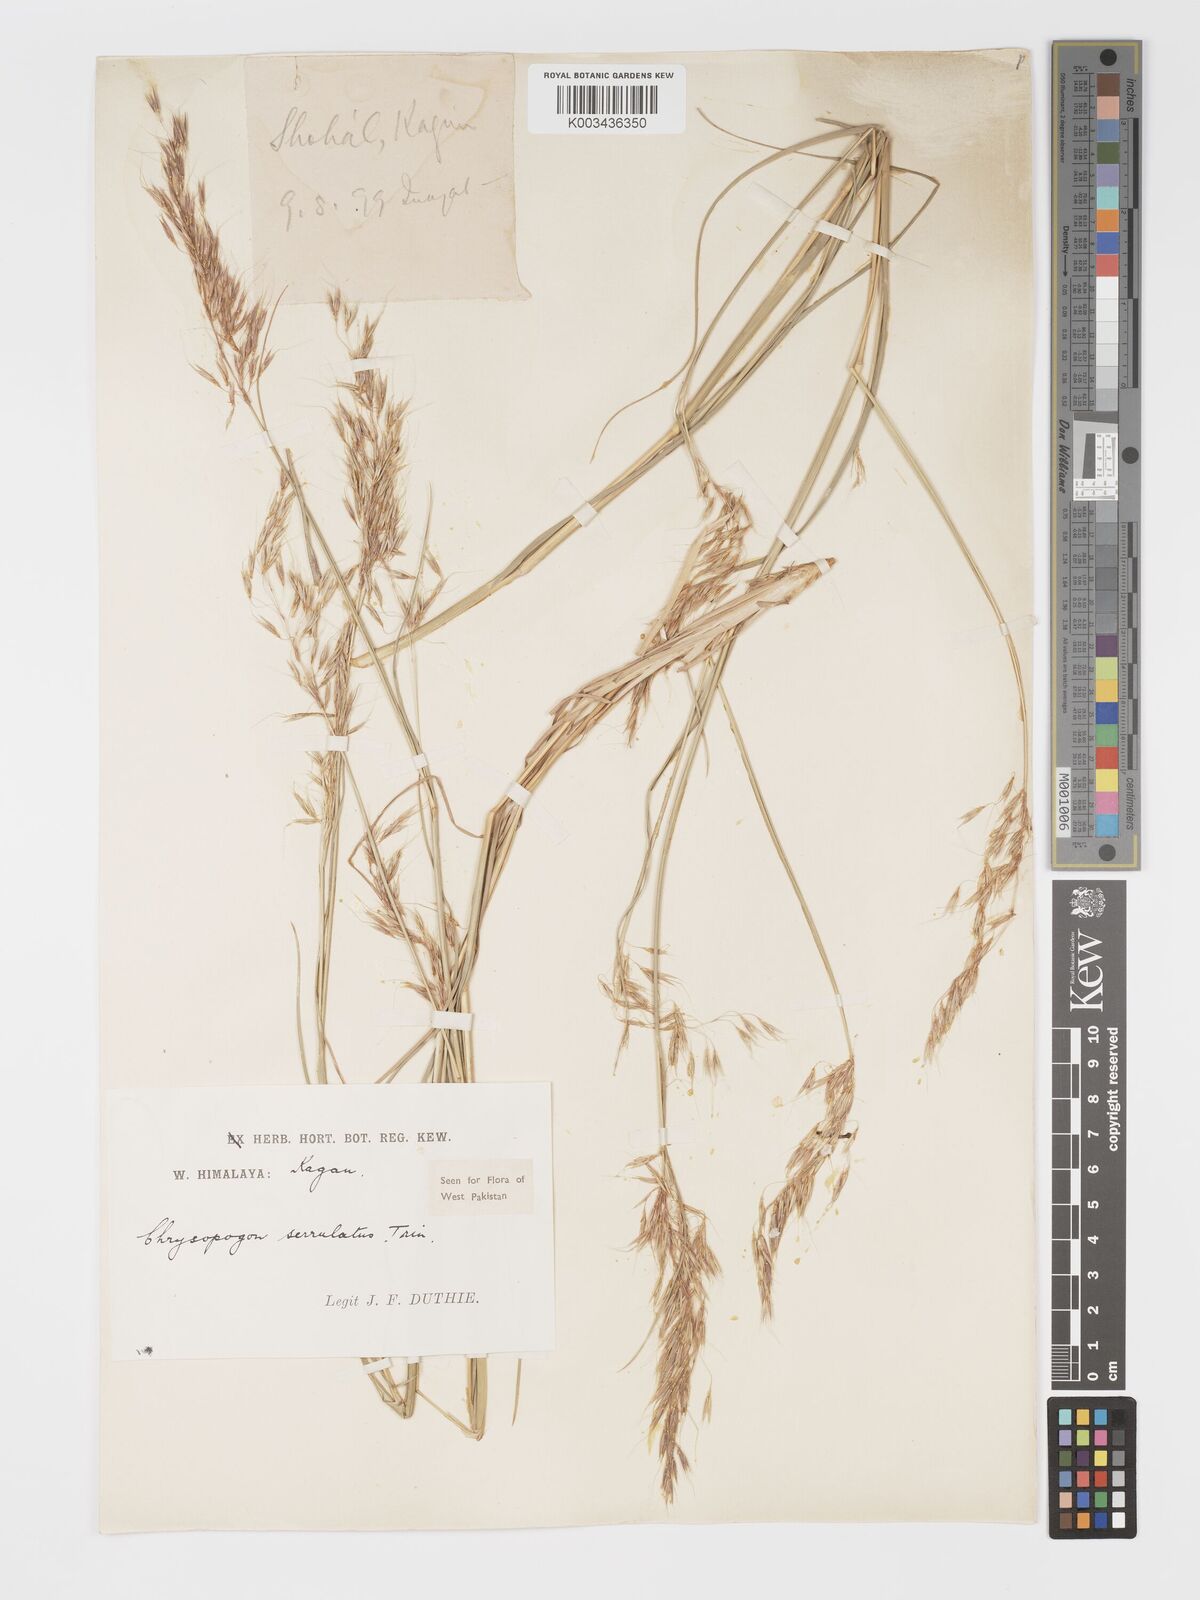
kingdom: Plantae
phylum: Tracheophyta
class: Liliopsida
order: Poales
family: Poaceae
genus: Chrysopogon
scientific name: Chrysopogon serrulatus
